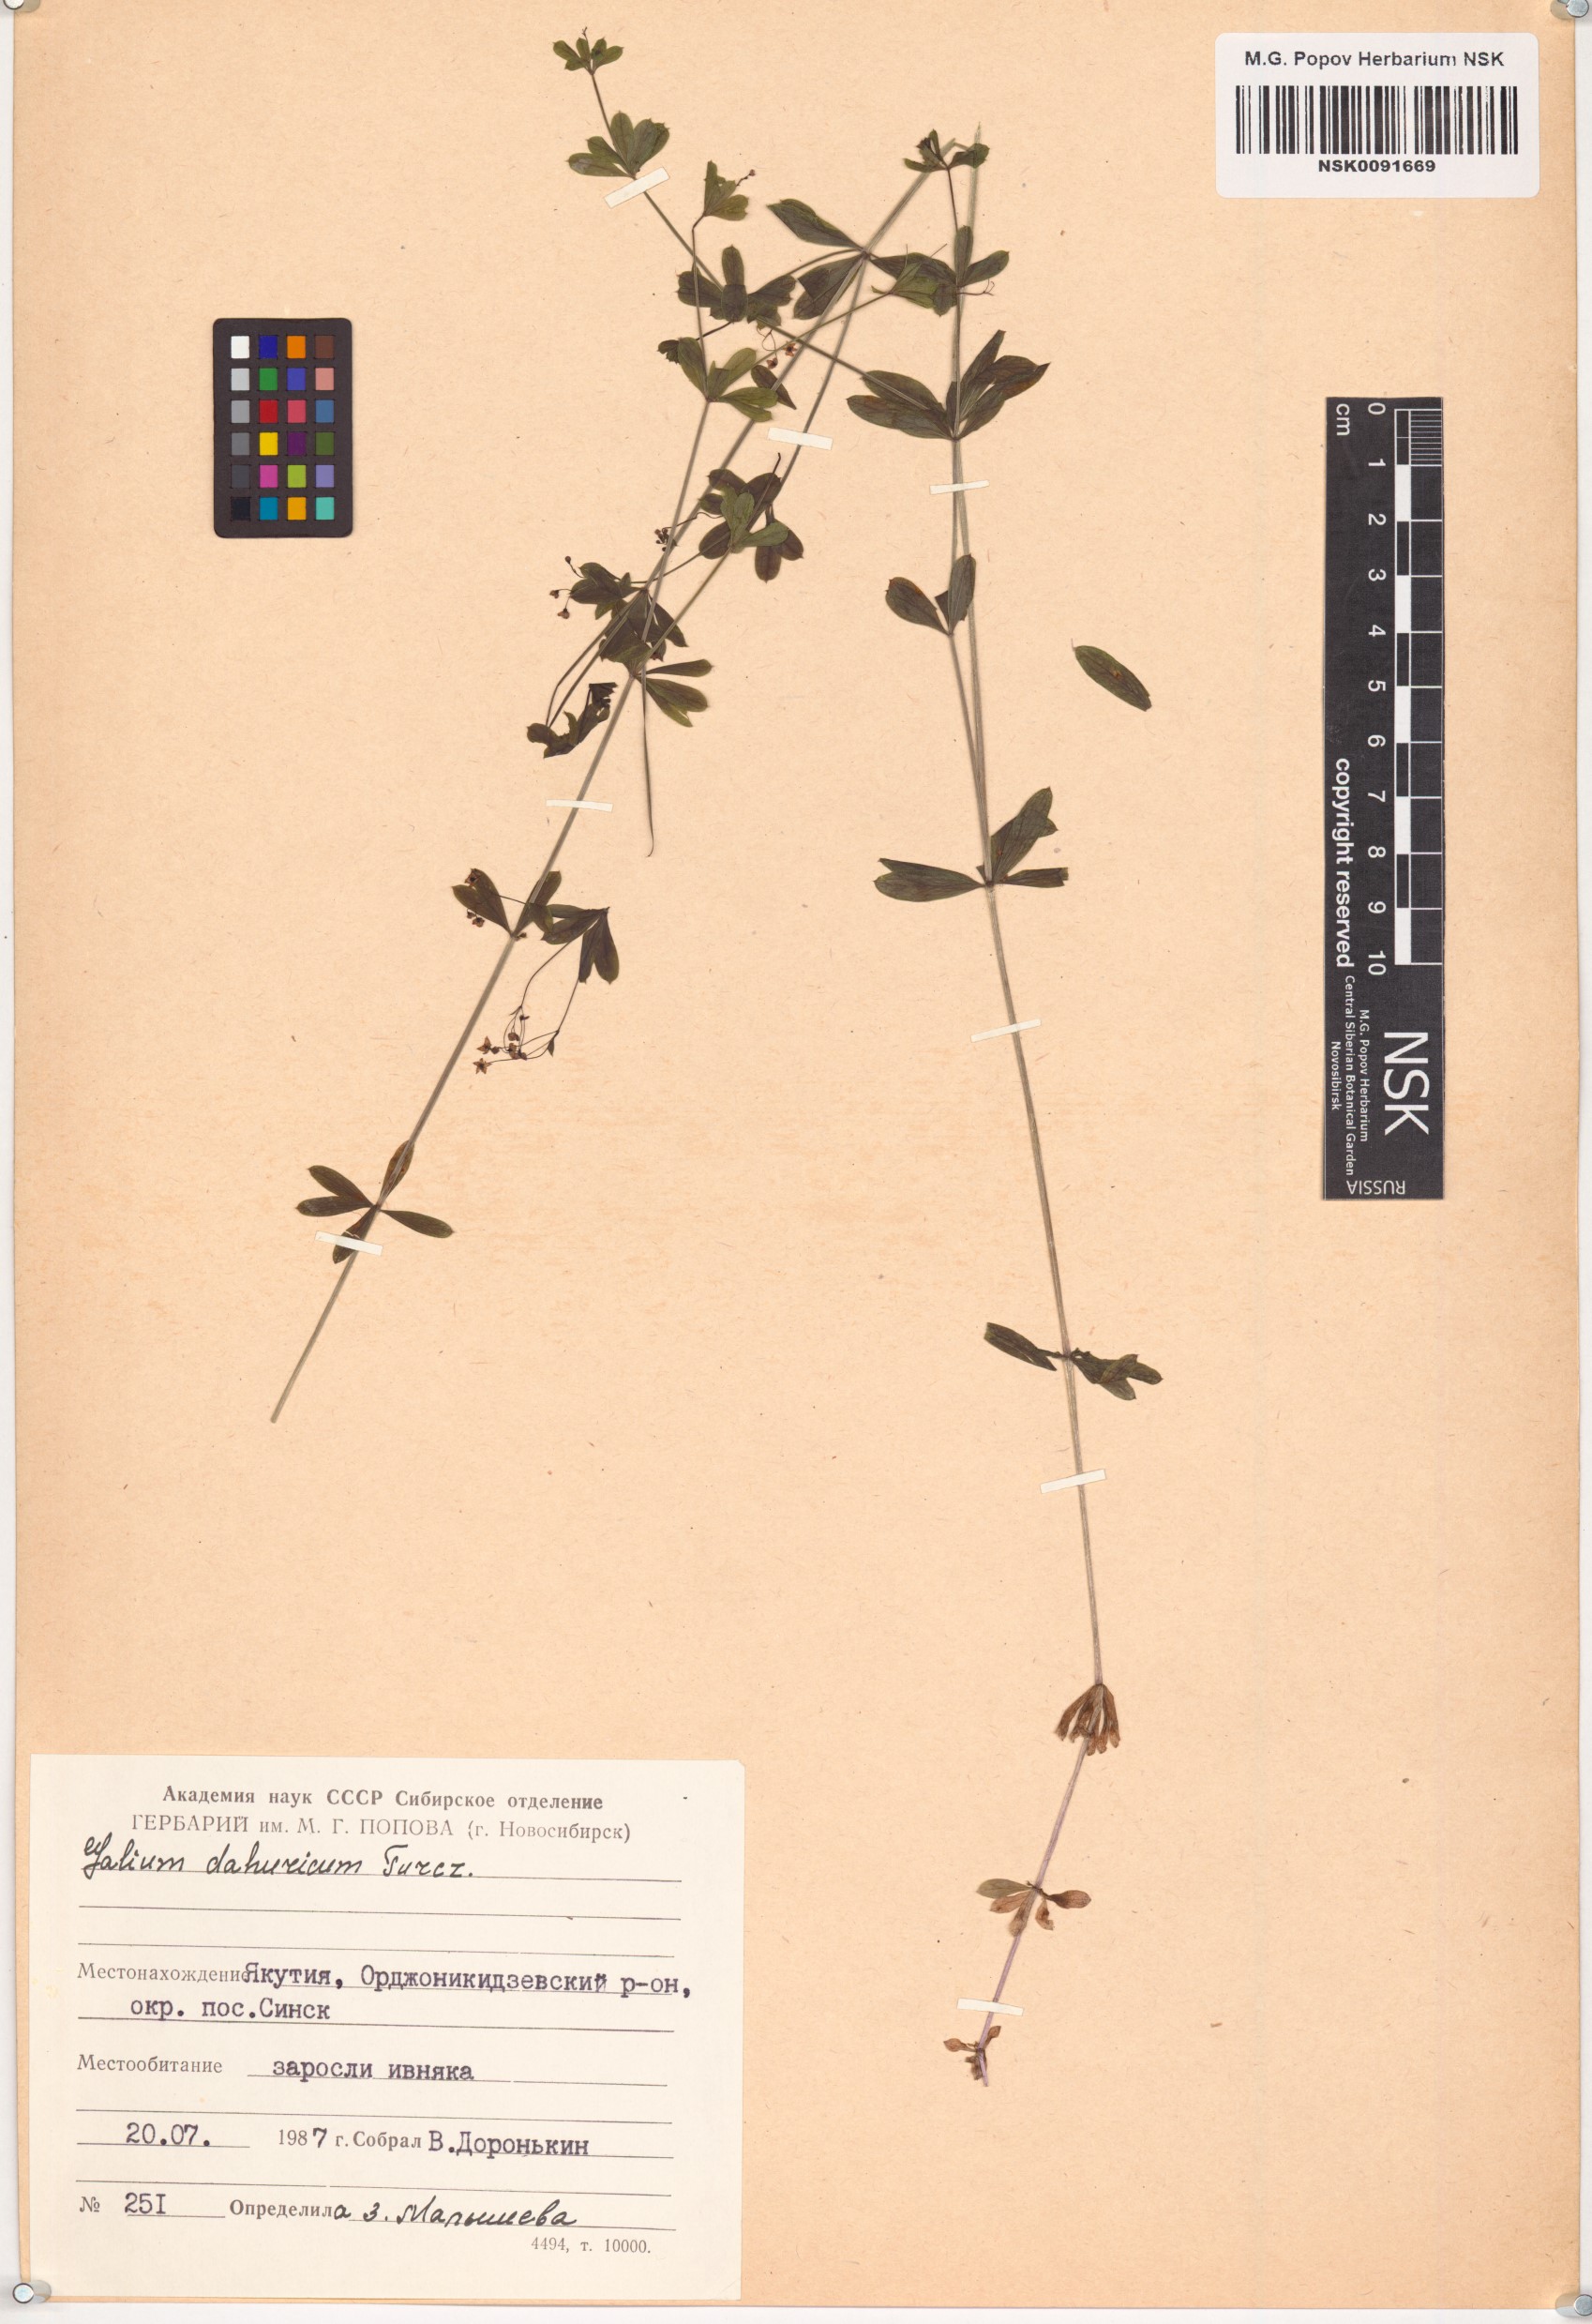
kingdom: Plantae
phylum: Tracheophyta
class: Magnoliopsida
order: Gentianales
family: Rubiaceae
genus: Galium
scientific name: Galium dahuricum
